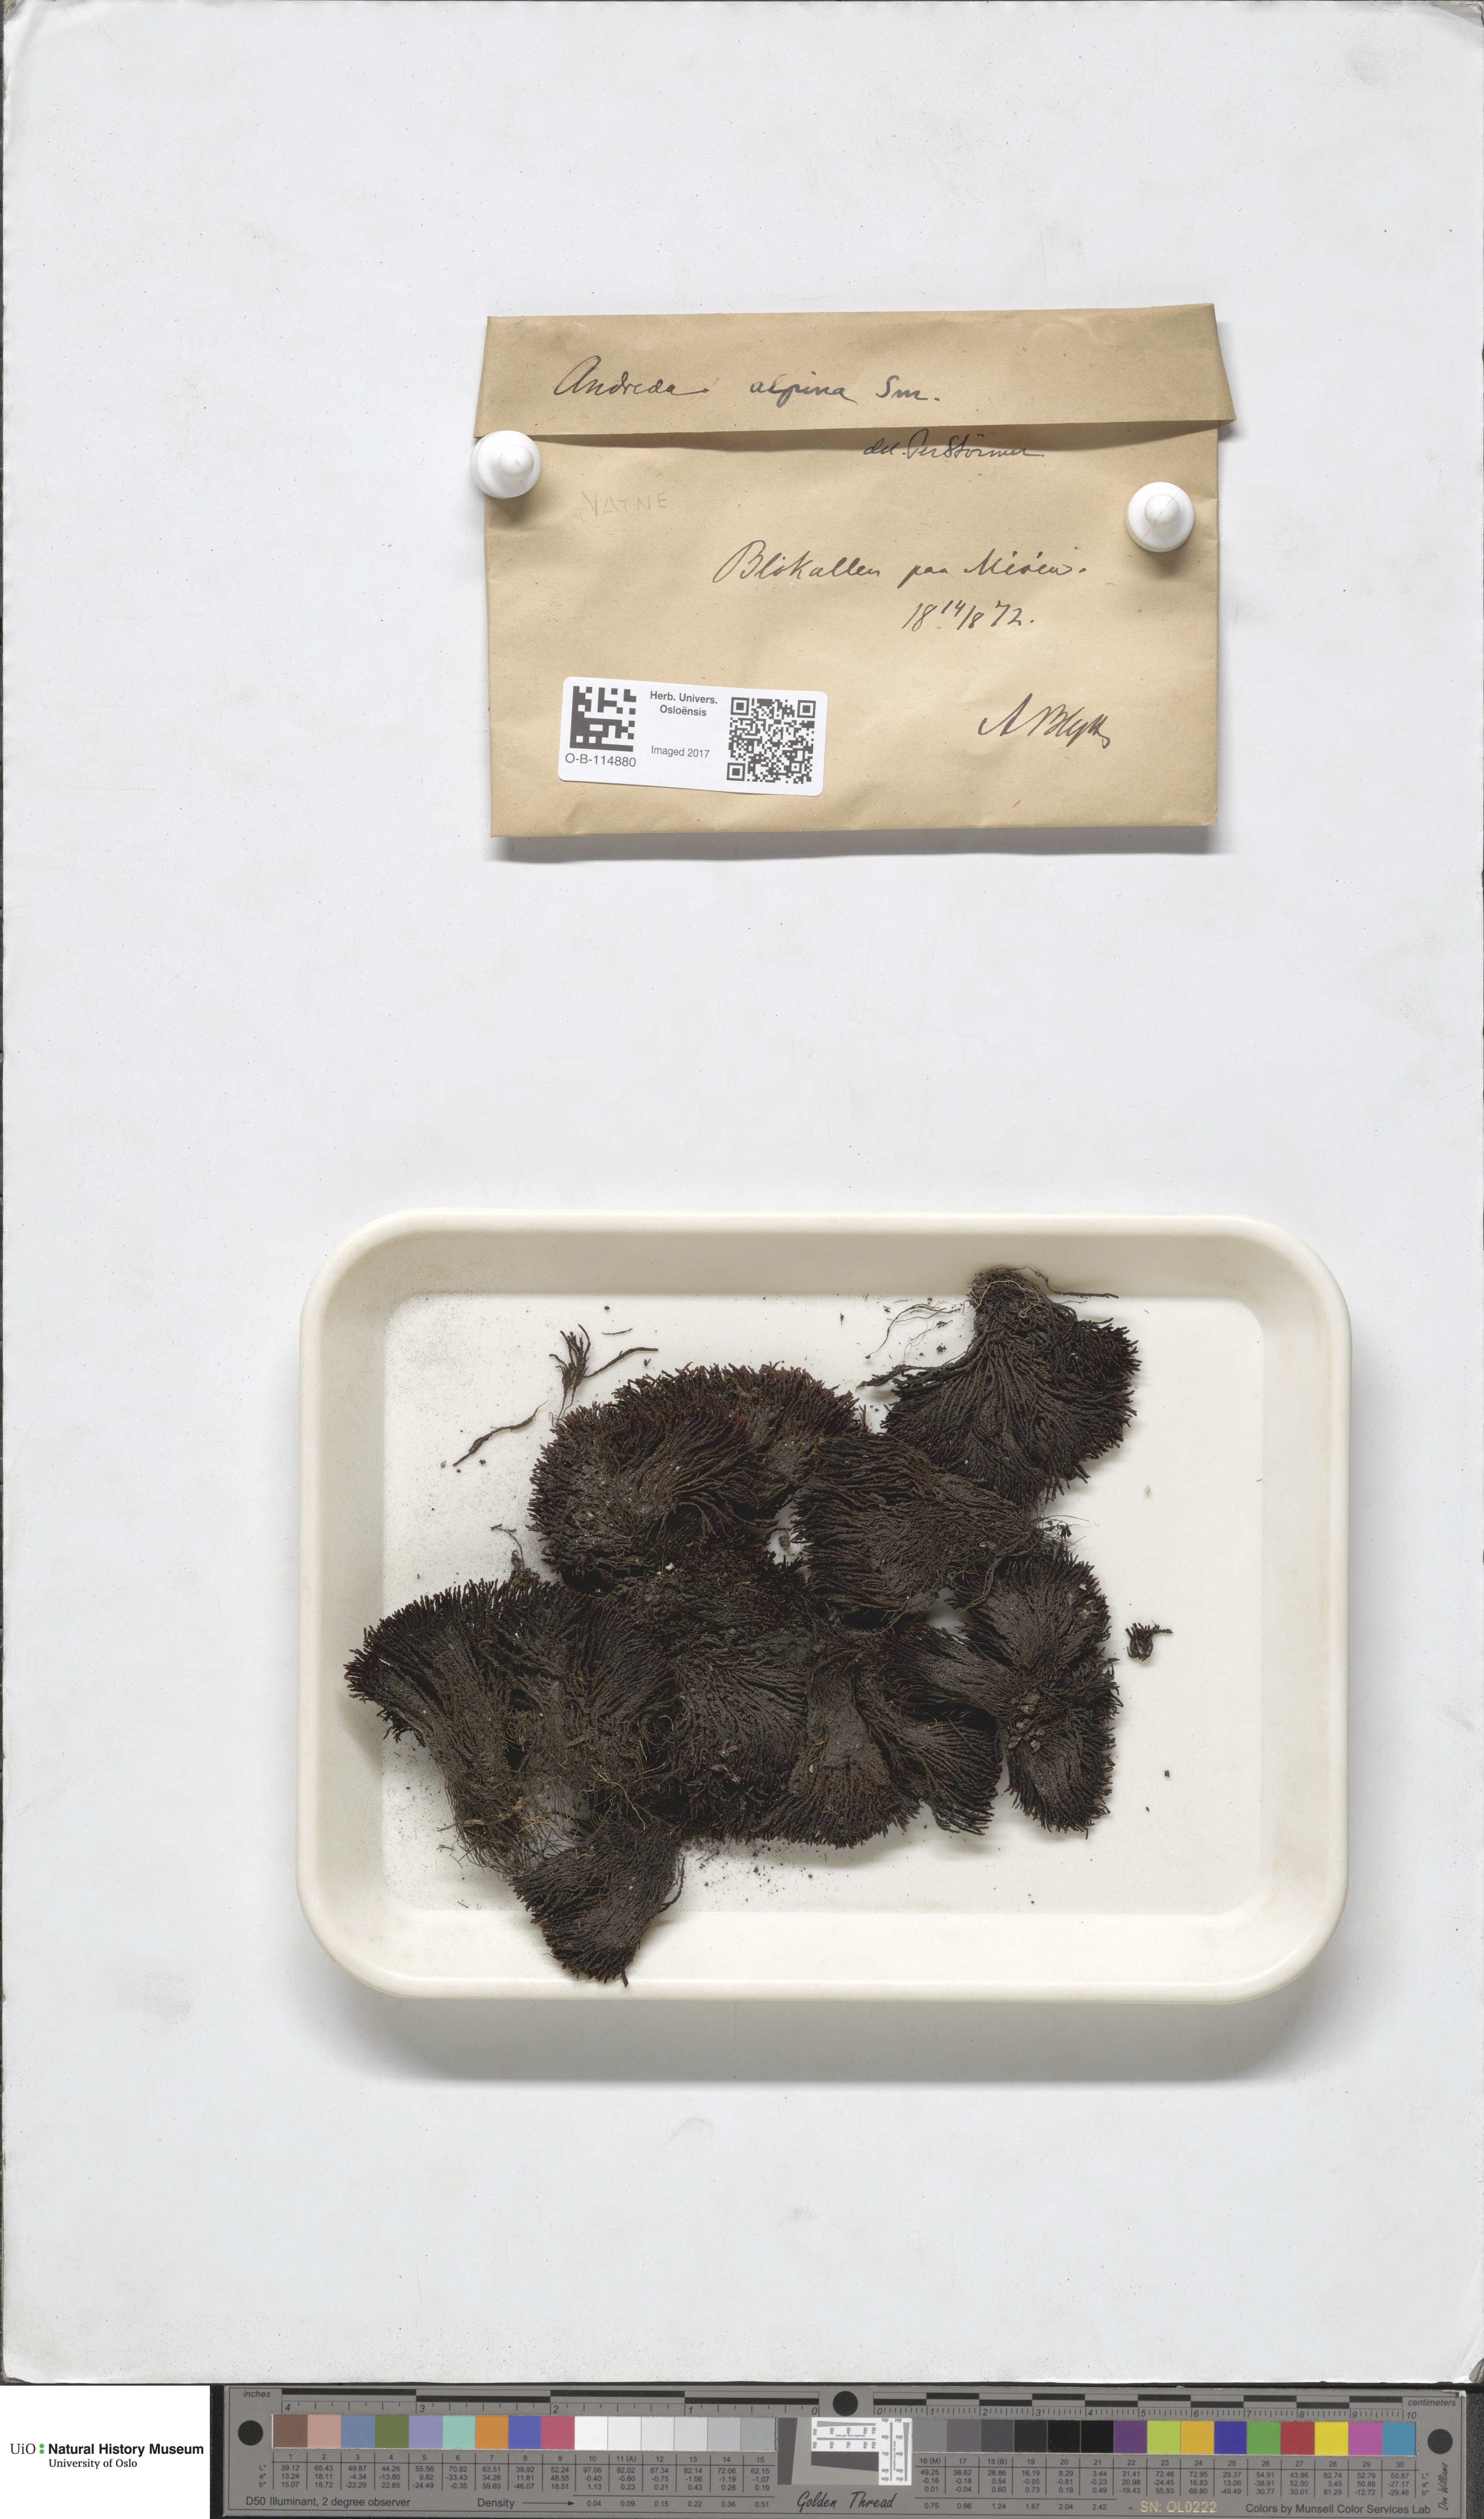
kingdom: Plantae
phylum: Bryophyta
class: Andreaeopsida
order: Andreaeales
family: Andreaeaceae
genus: Andreaea
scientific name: Andreaea hookeri
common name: Alpine rock-moss
